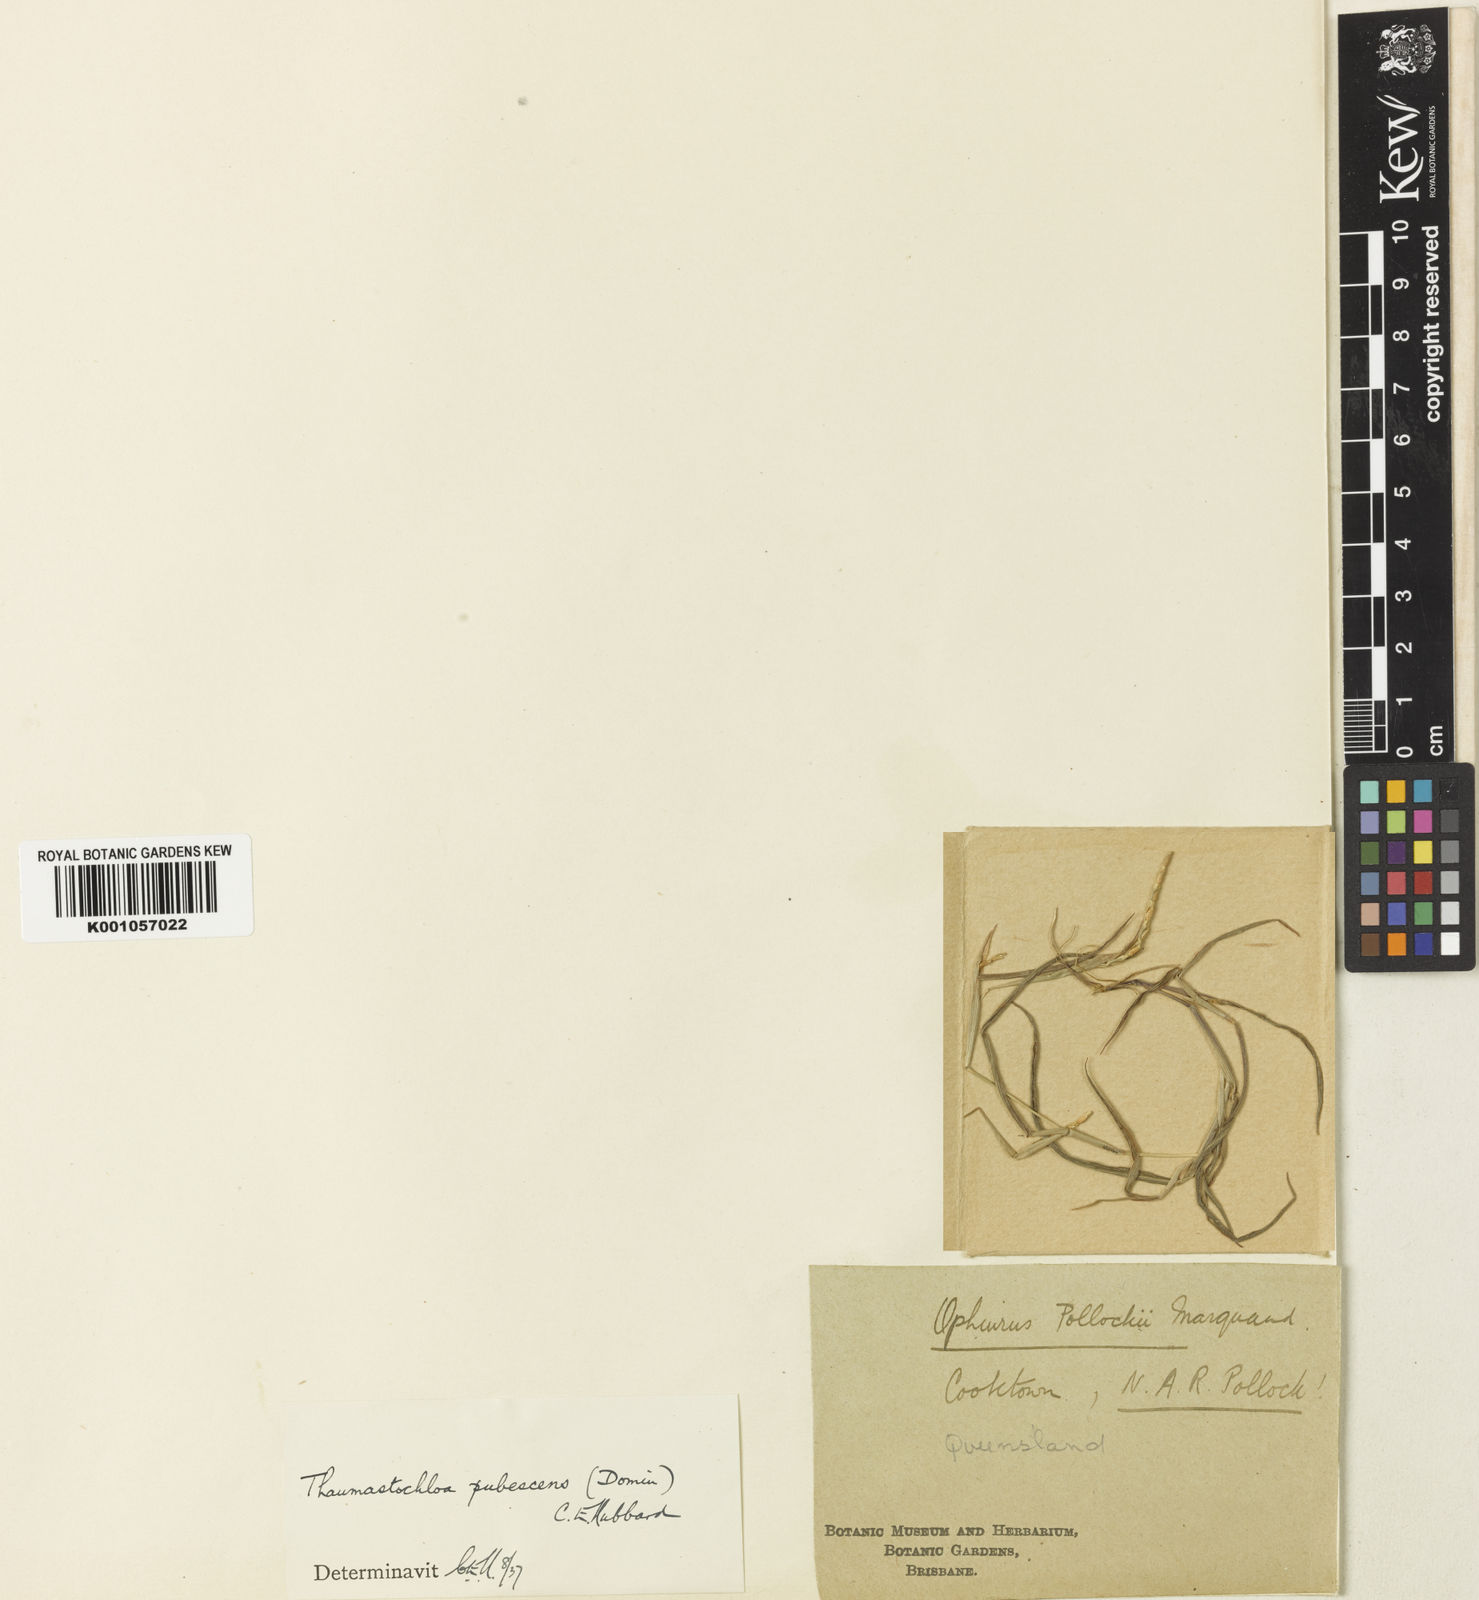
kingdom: Plantae
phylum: Tracheophyta
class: Liliopsida
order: Poales
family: Poaceae
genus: Thaumastochloa
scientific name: Thaumastochloa pubescens
